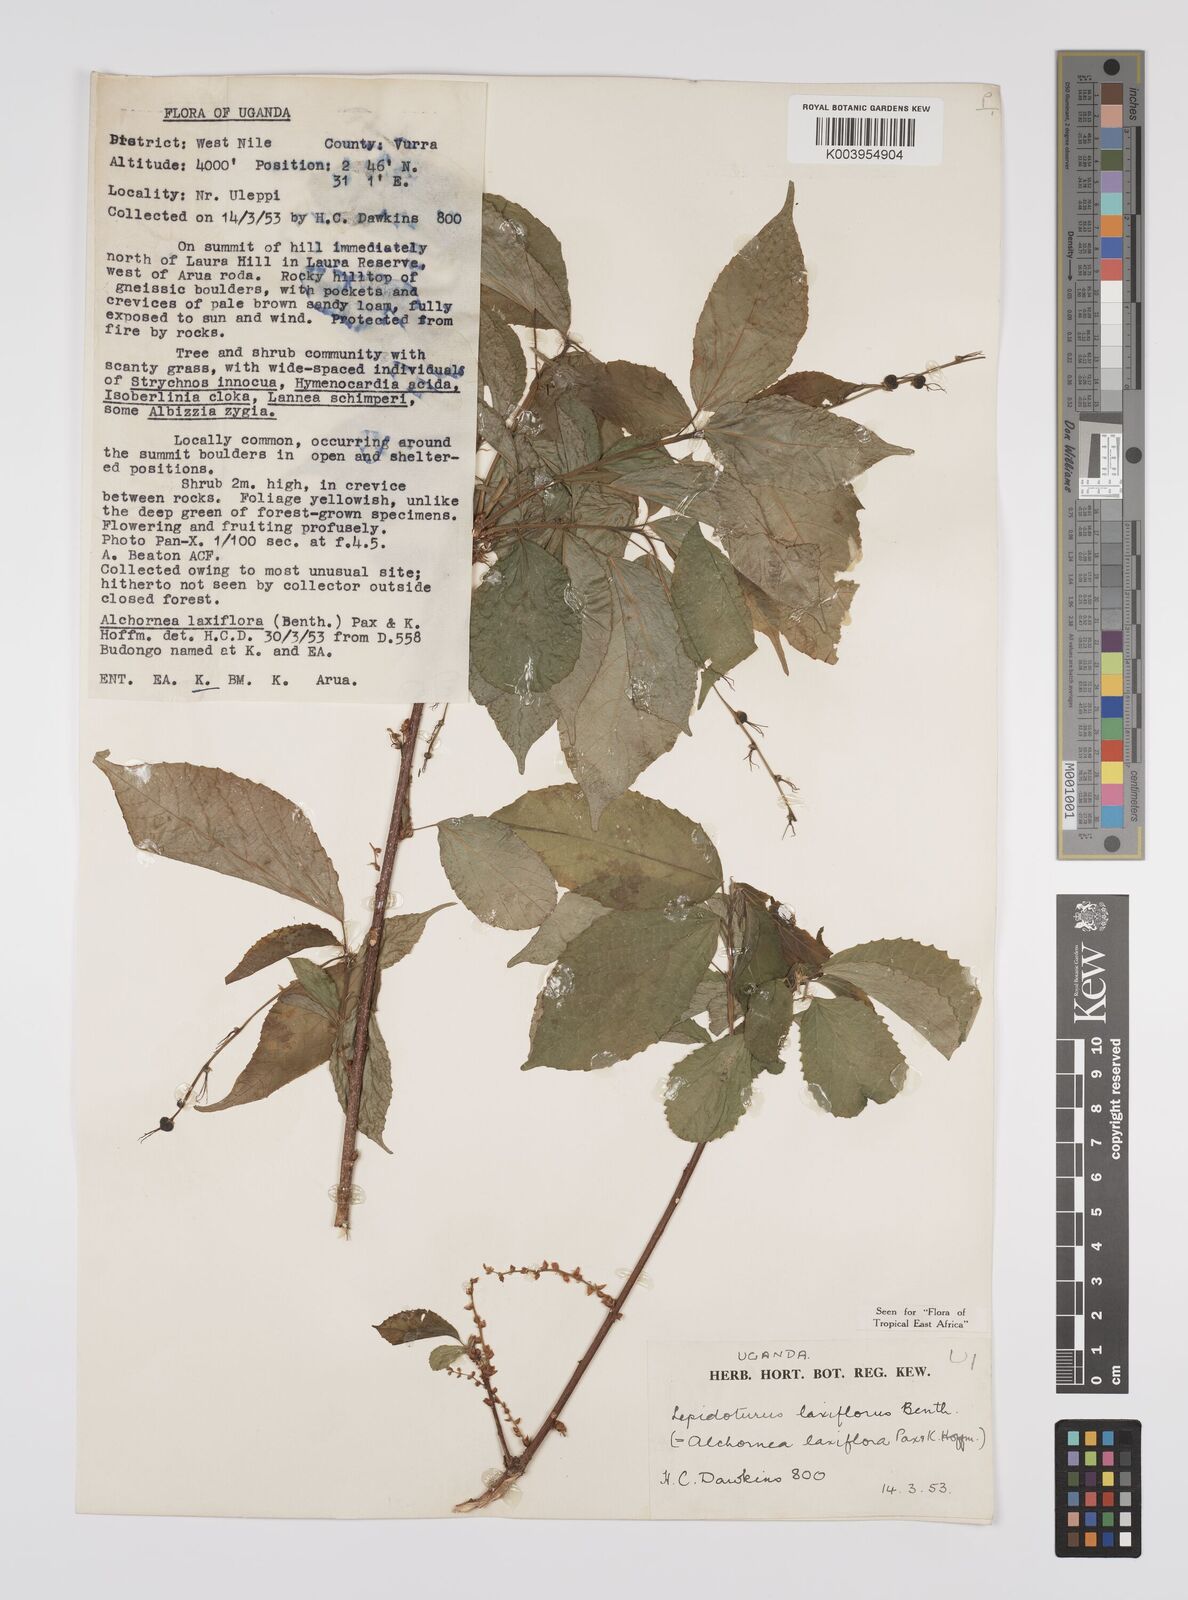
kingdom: Plantae
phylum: Tracheophyta
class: Magnoliopsida
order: Malpighiales
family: Euphorbiaceae
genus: Alchornea
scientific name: Alchornea laxiflora
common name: Lowveld bead-string
